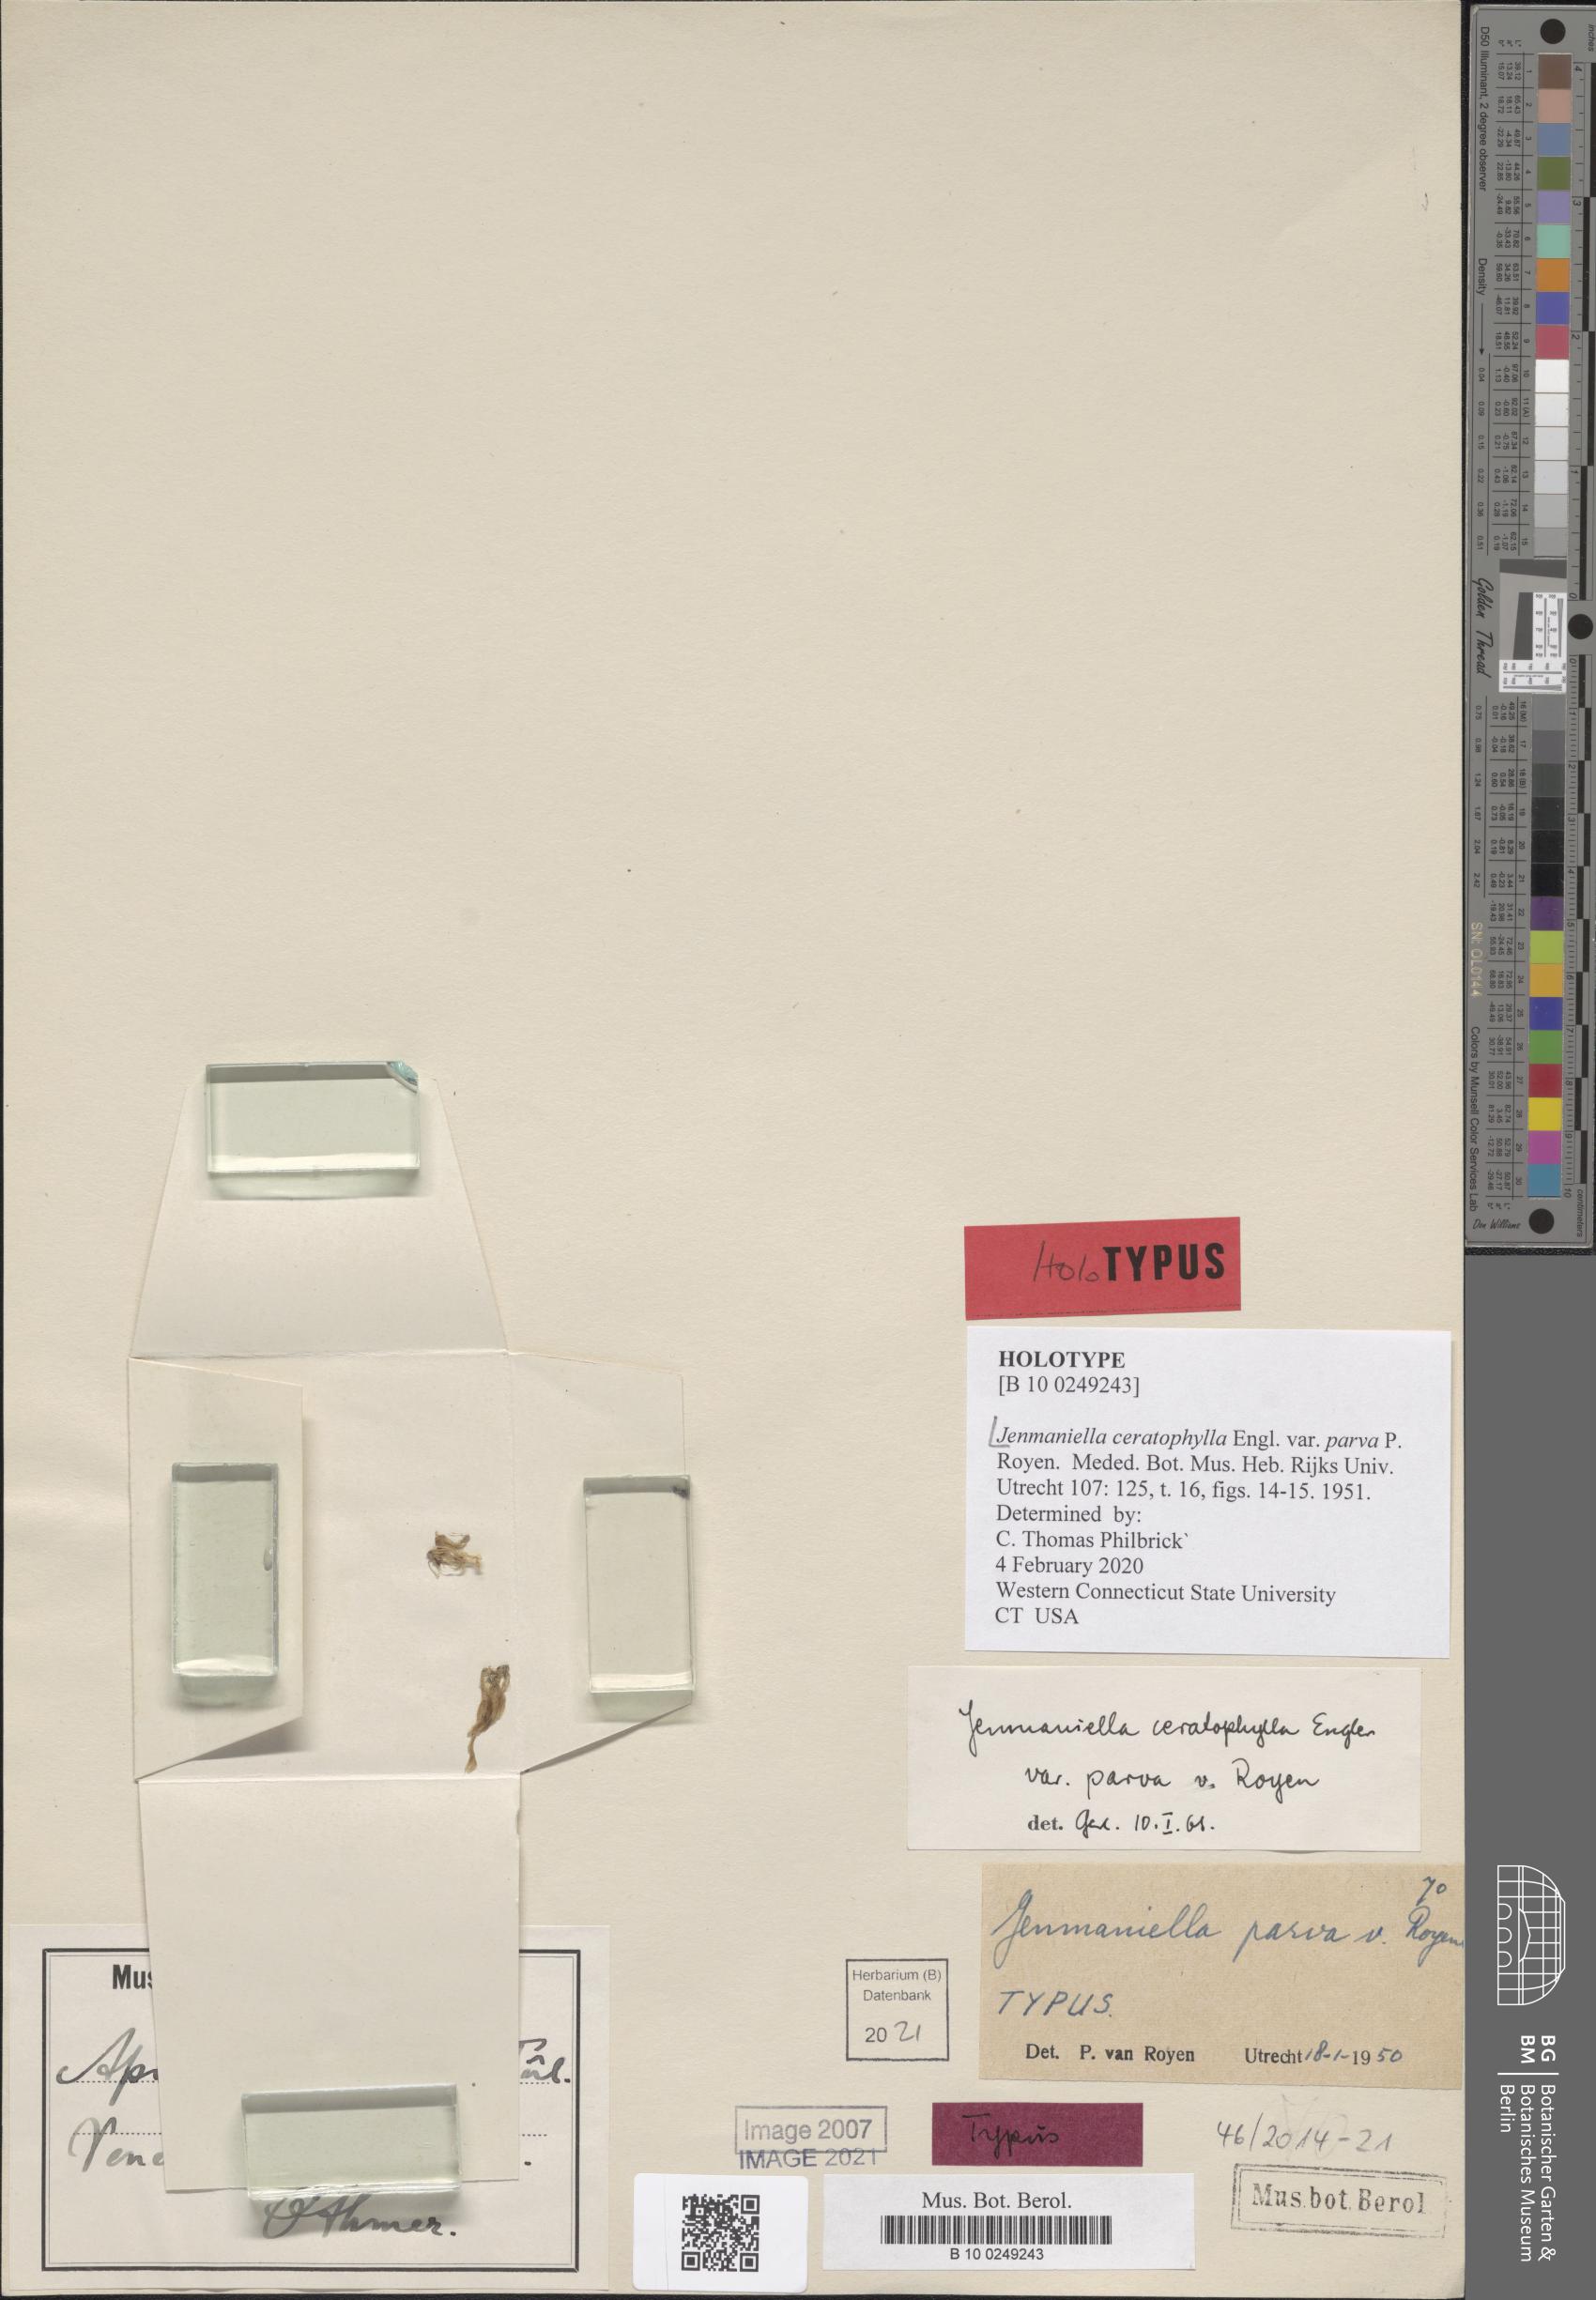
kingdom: Plantae
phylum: Tracheophyta
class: Magnoliopsida
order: Malpighiales
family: Podostemaceae
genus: Lophogyne
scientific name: Lophogyne ceratophylla
